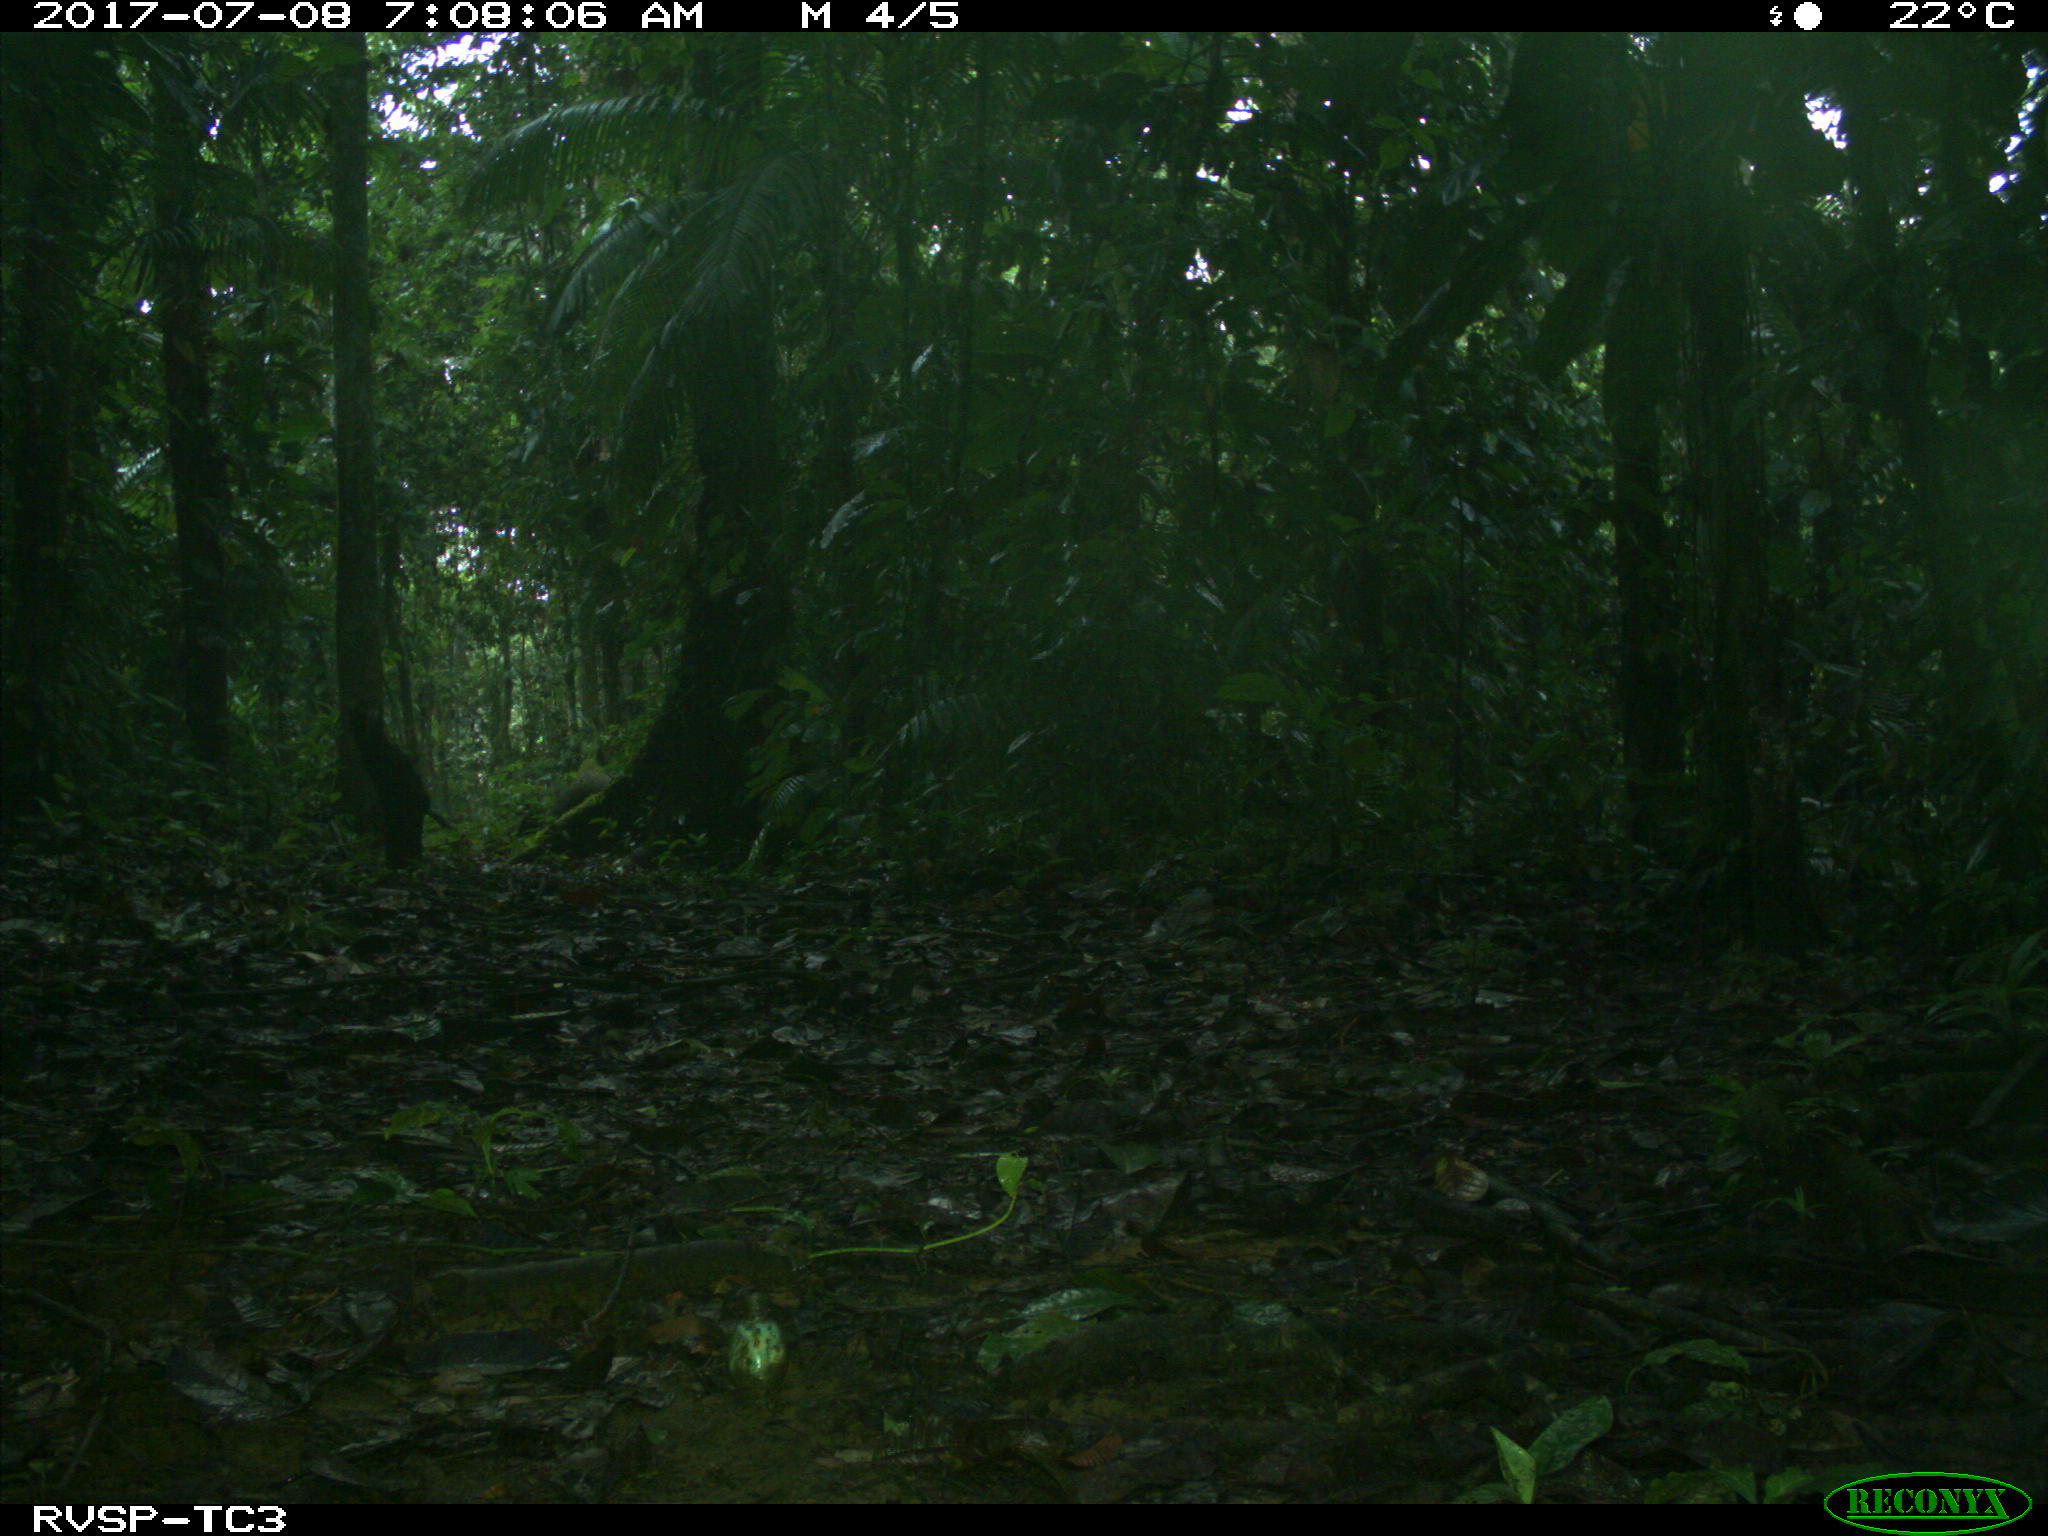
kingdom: Animalia
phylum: Chordata
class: Mammalia
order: Rodentia
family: Dasyproctidae
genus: Dasyprocta
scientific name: Dasyprocta punctata
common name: Central american agouti
